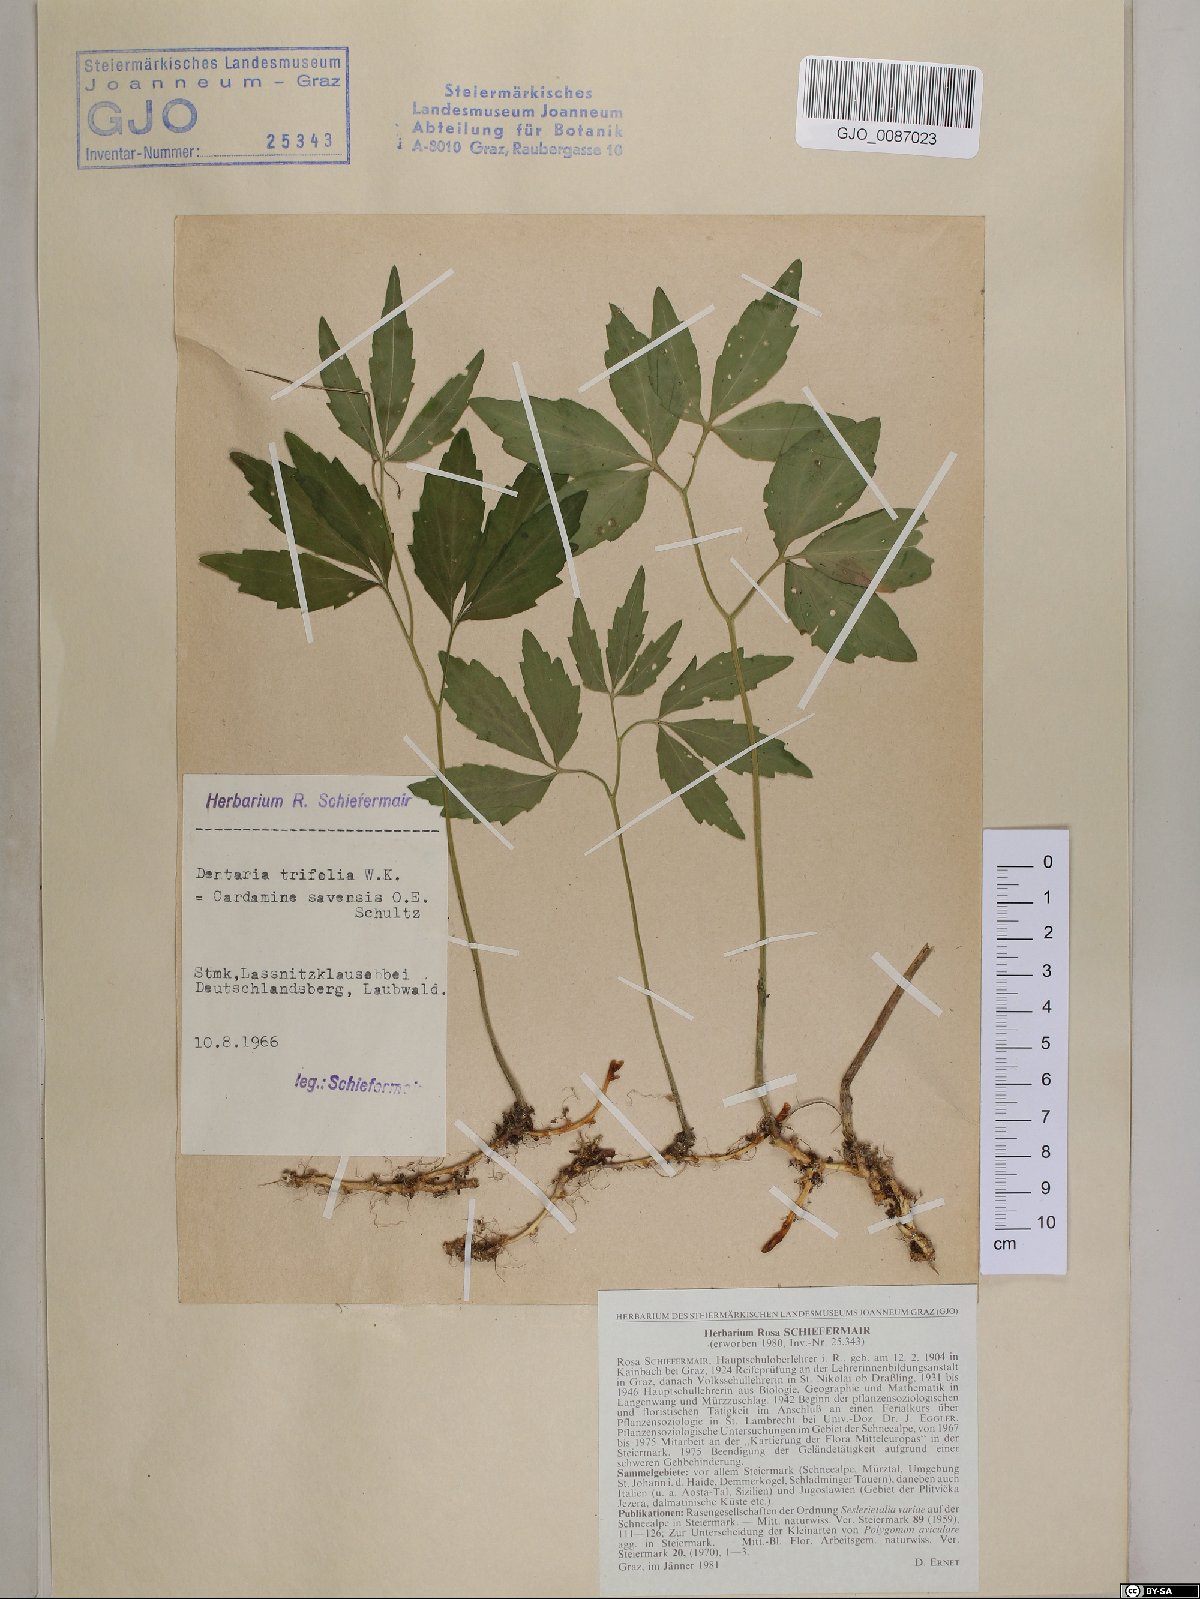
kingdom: Plantae
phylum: Tracheophyta
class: Magnoliopsida
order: Brassicales
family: Brassicaceae
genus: Cardamine
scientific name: Cardamine waldsteinii
